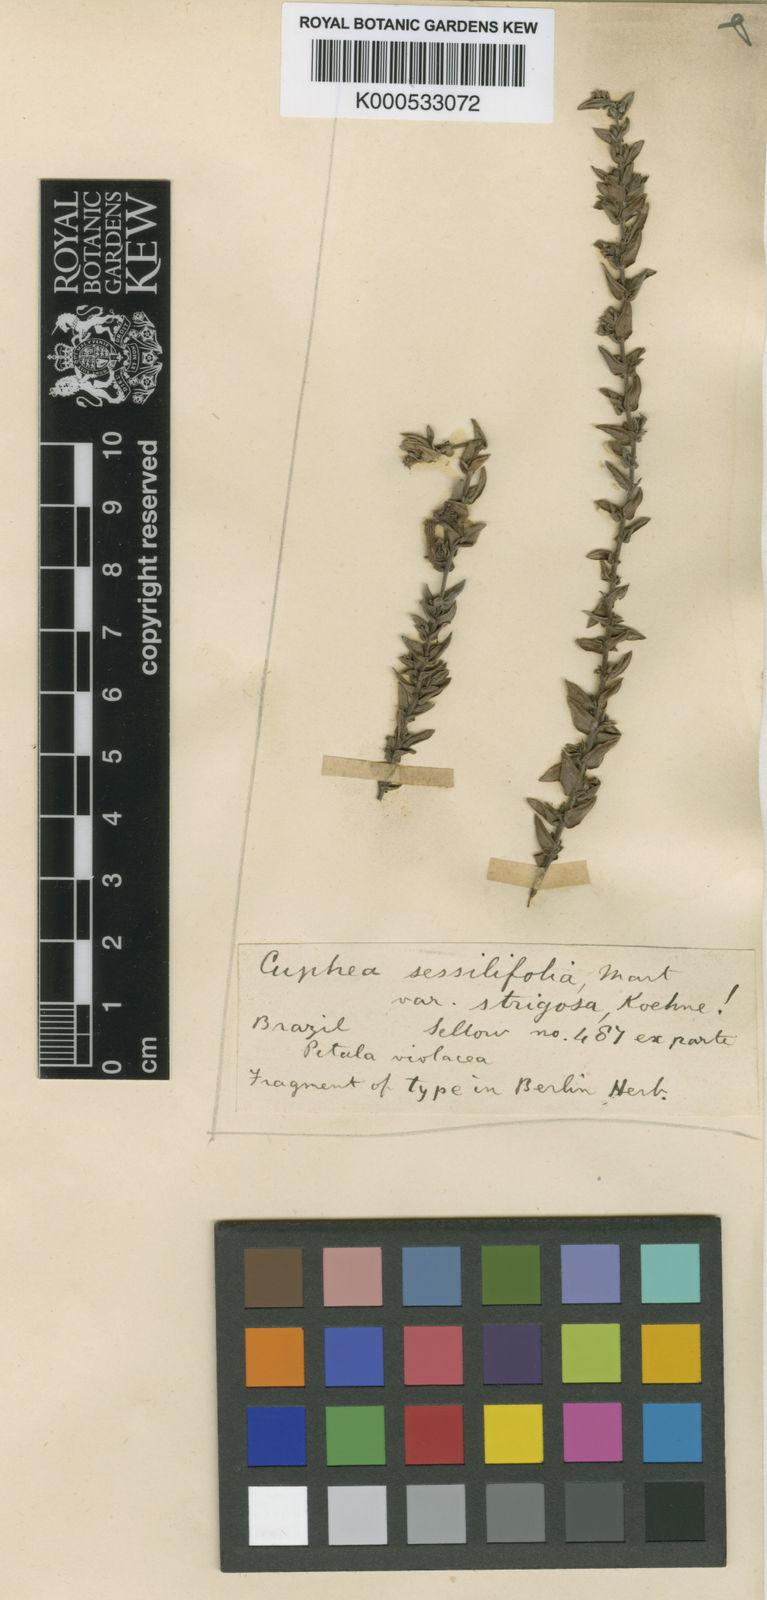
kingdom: Plantae
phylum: Tracheophyta
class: Magnoliopsida
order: Myrtales
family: Lythraceae
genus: Cuphea
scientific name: Cuphea sessilifolia
